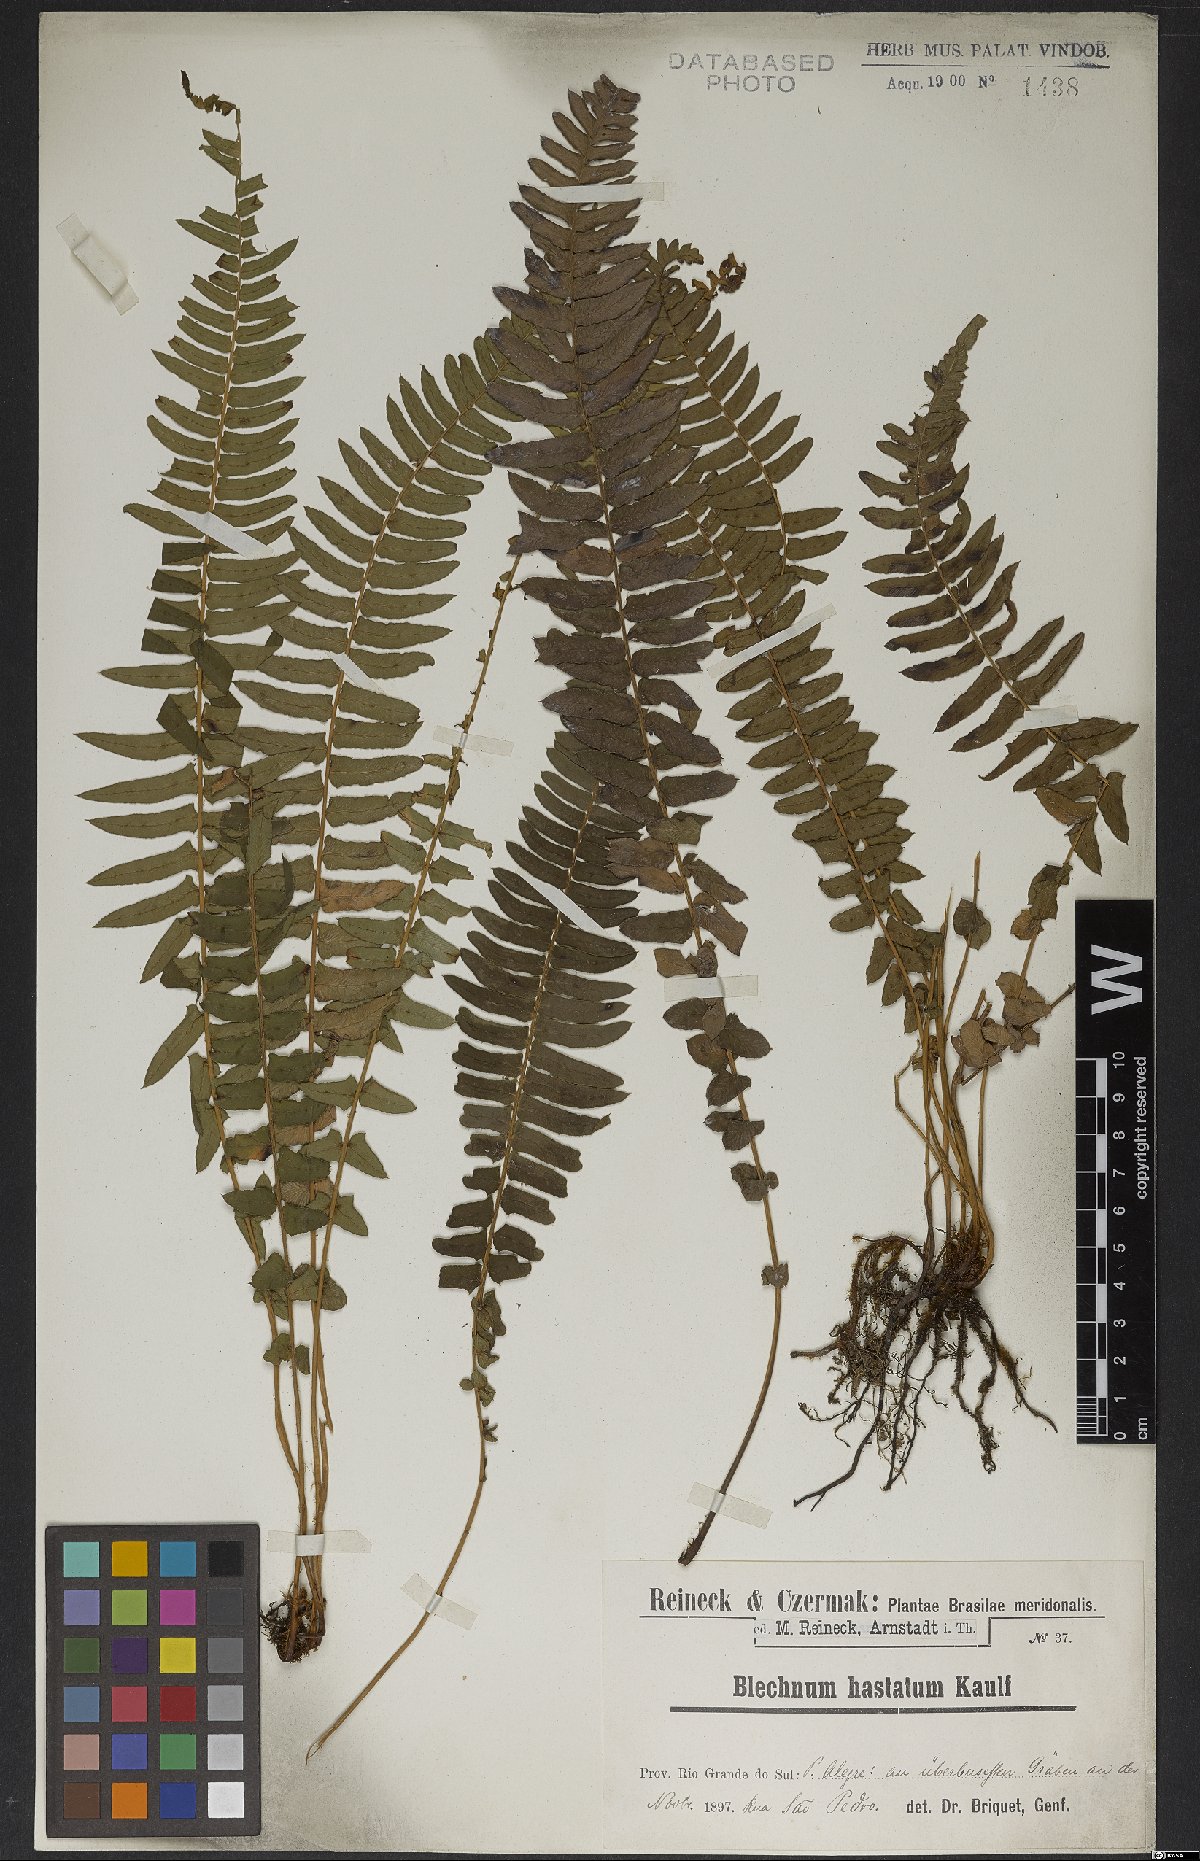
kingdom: Plantae
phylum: Tracheophyta
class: Polypodiopsida
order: Polypodiales
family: Blechnaceae
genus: Blechnum
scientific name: Blechnum auriculatum
